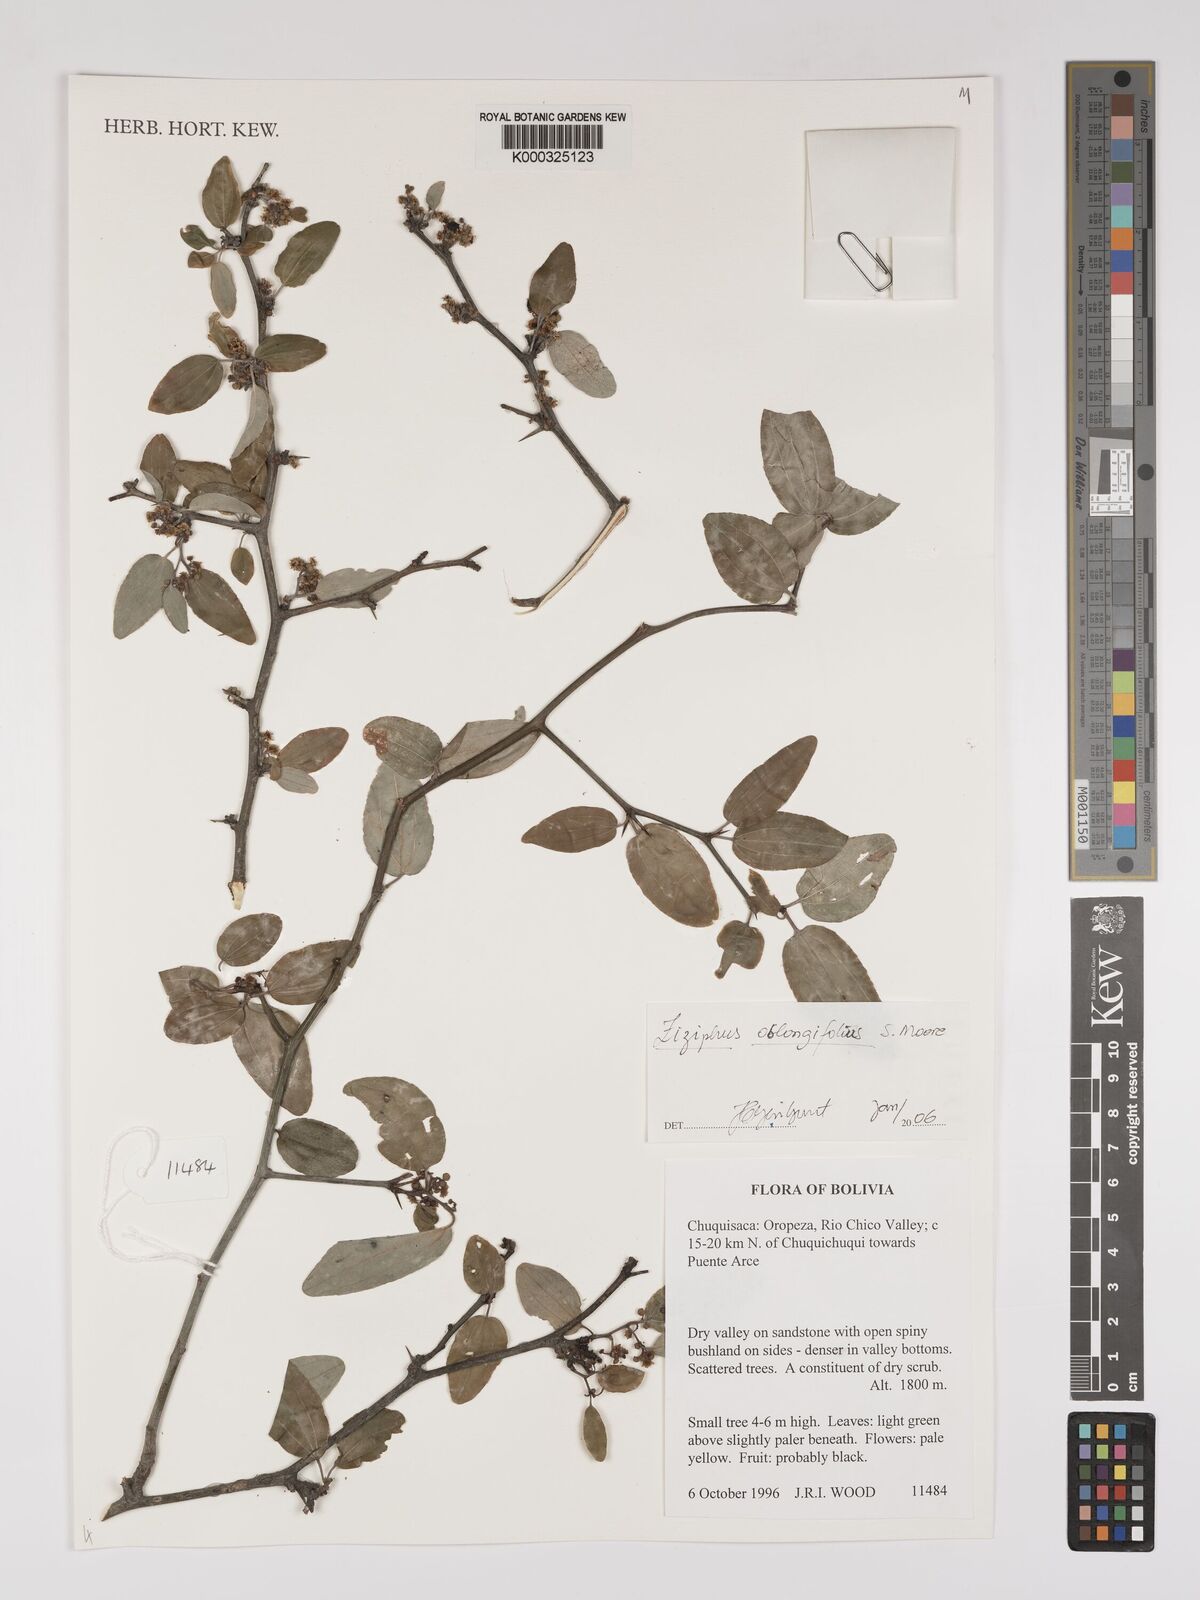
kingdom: Plantae
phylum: Tracheophyta
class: Magnoliopsida
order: Rosales
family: Rhamnaceae
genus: Sarcomphalus
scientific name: Sarcomphalus mistol
